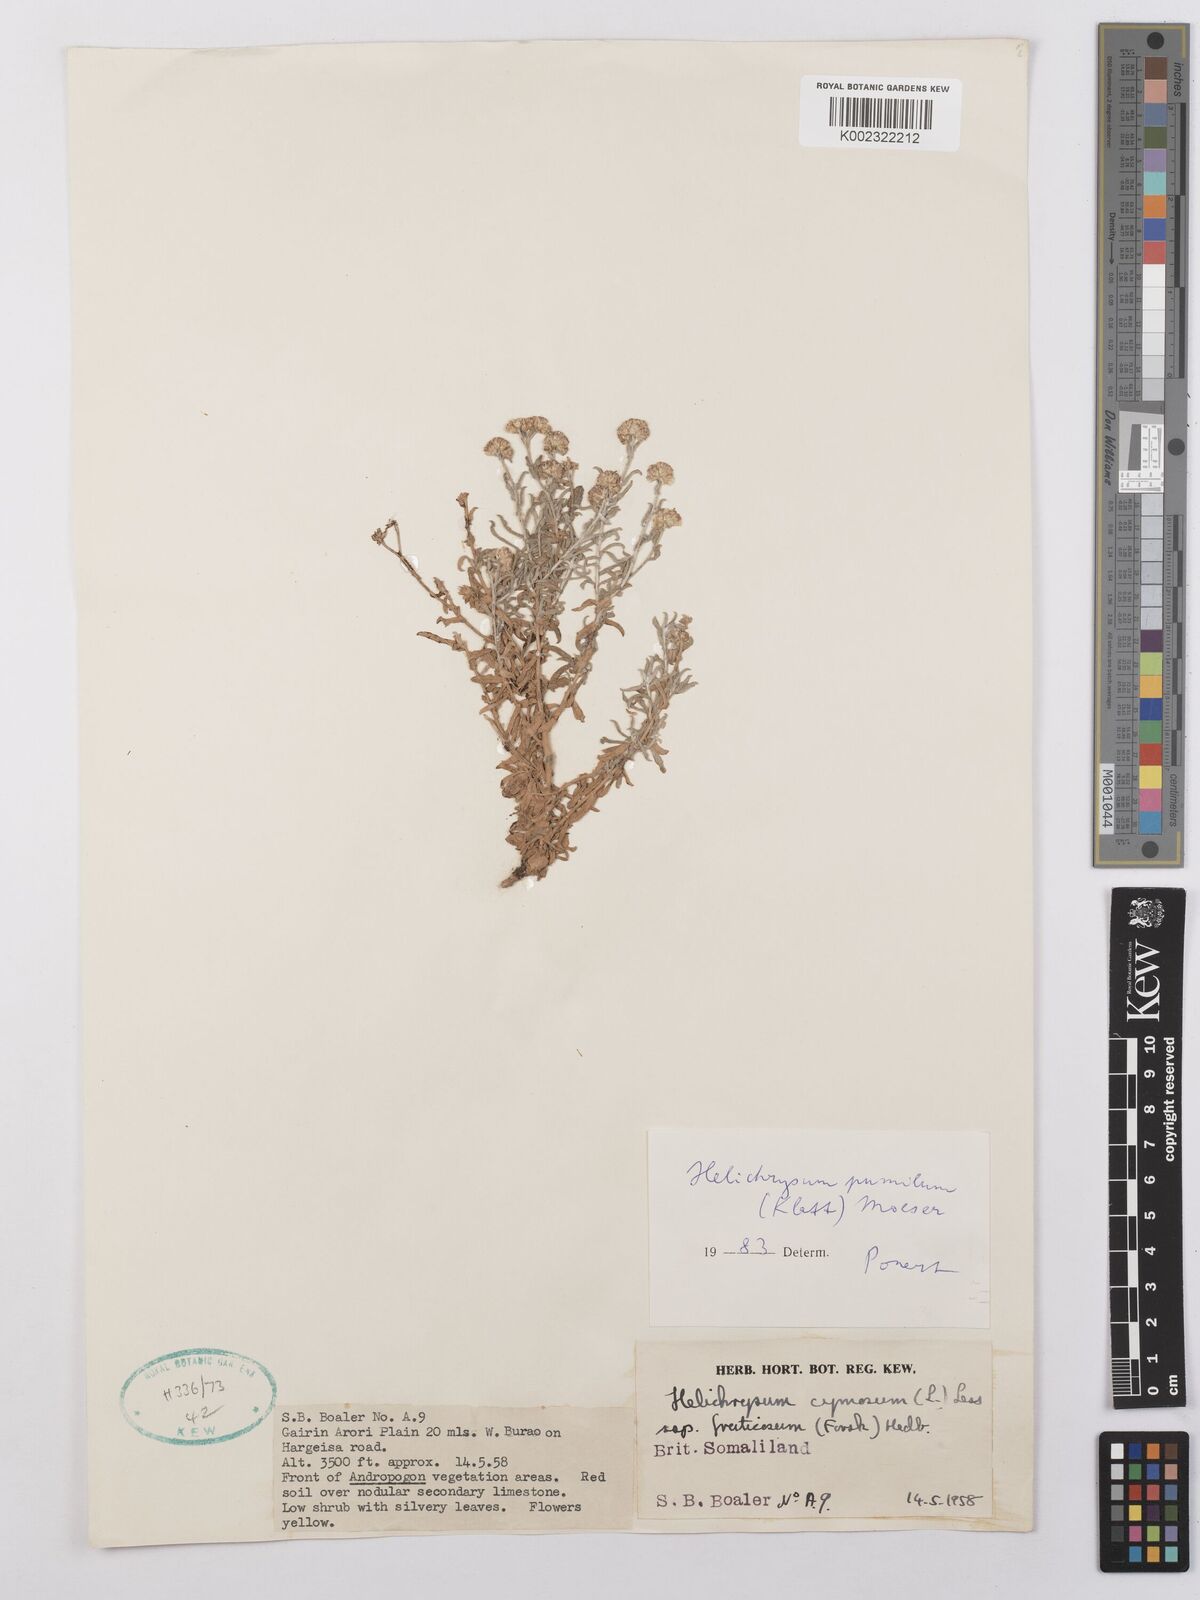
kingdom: Plantae
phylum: Tracheophyta
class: Magnoliopsida
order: Asterales
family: Asteraceae
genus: Helichrysum
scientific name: Helichrysum somalense
